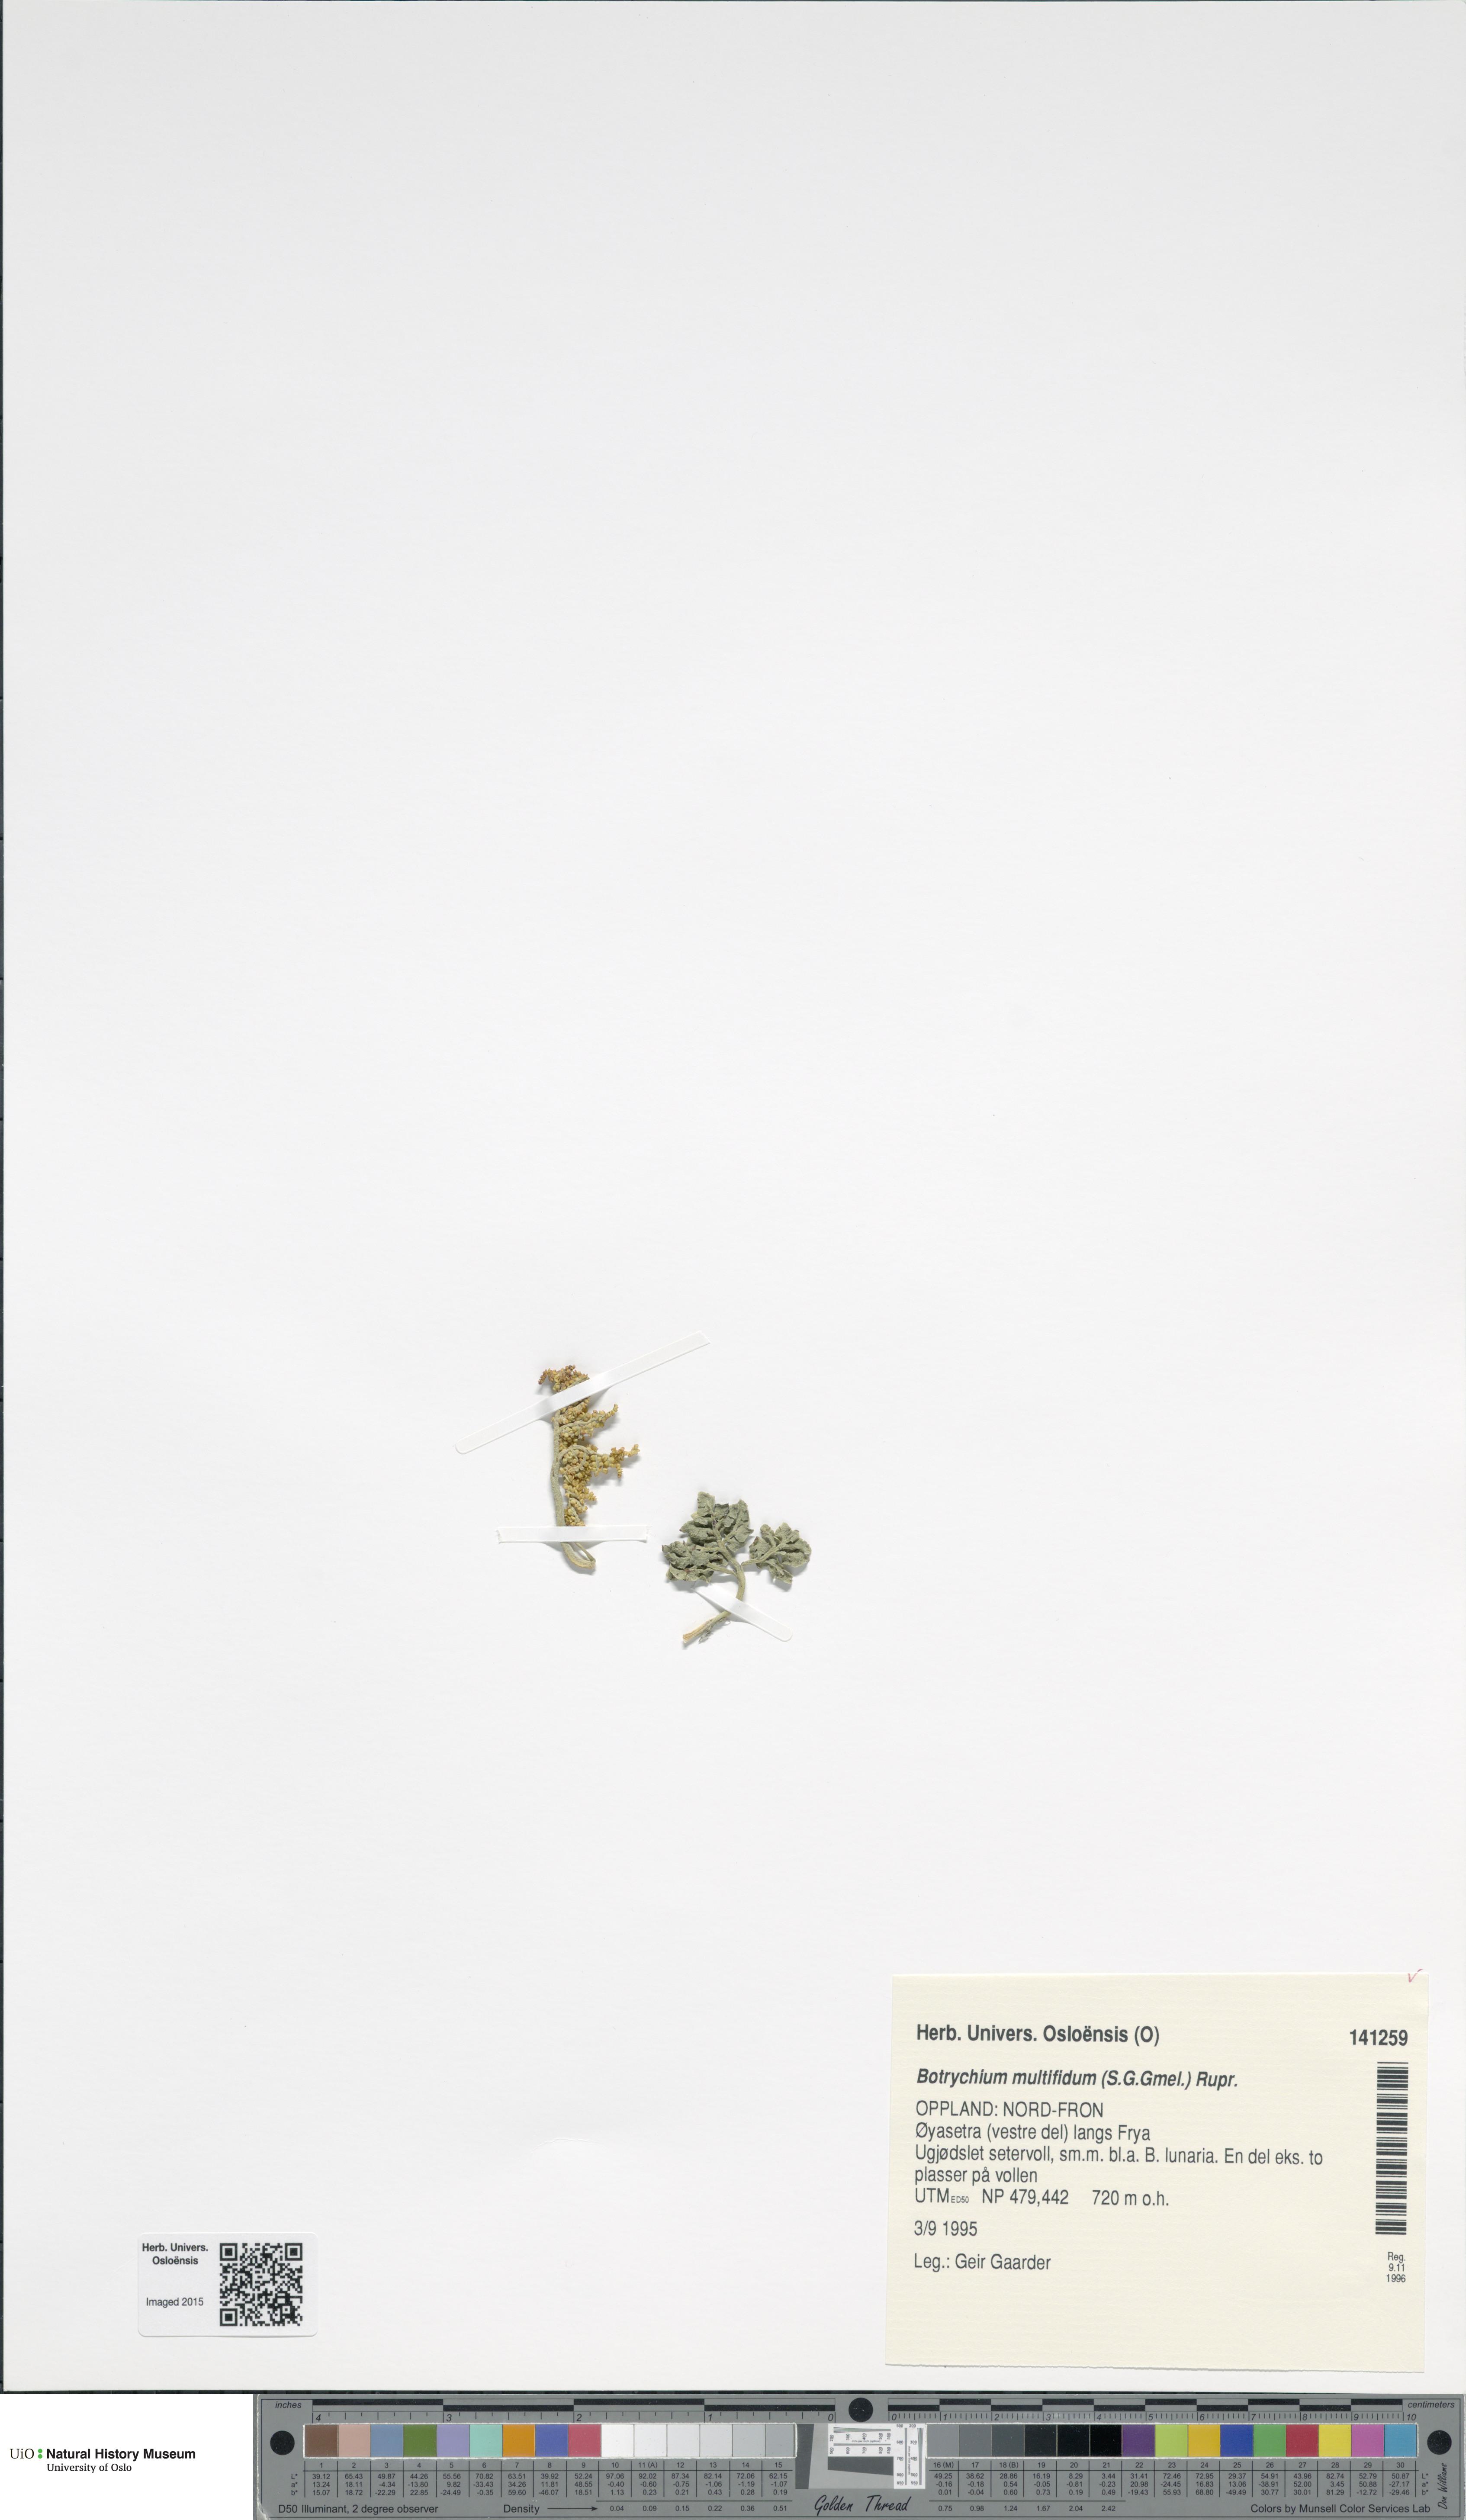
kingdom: Plantae
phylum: Tracheophyta
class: Polypodiopsida
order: Ophioglossales
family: Ophioglossaceae
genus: Sceptridium
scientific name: Sceptridium multifidum
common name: Leathery grape fern
